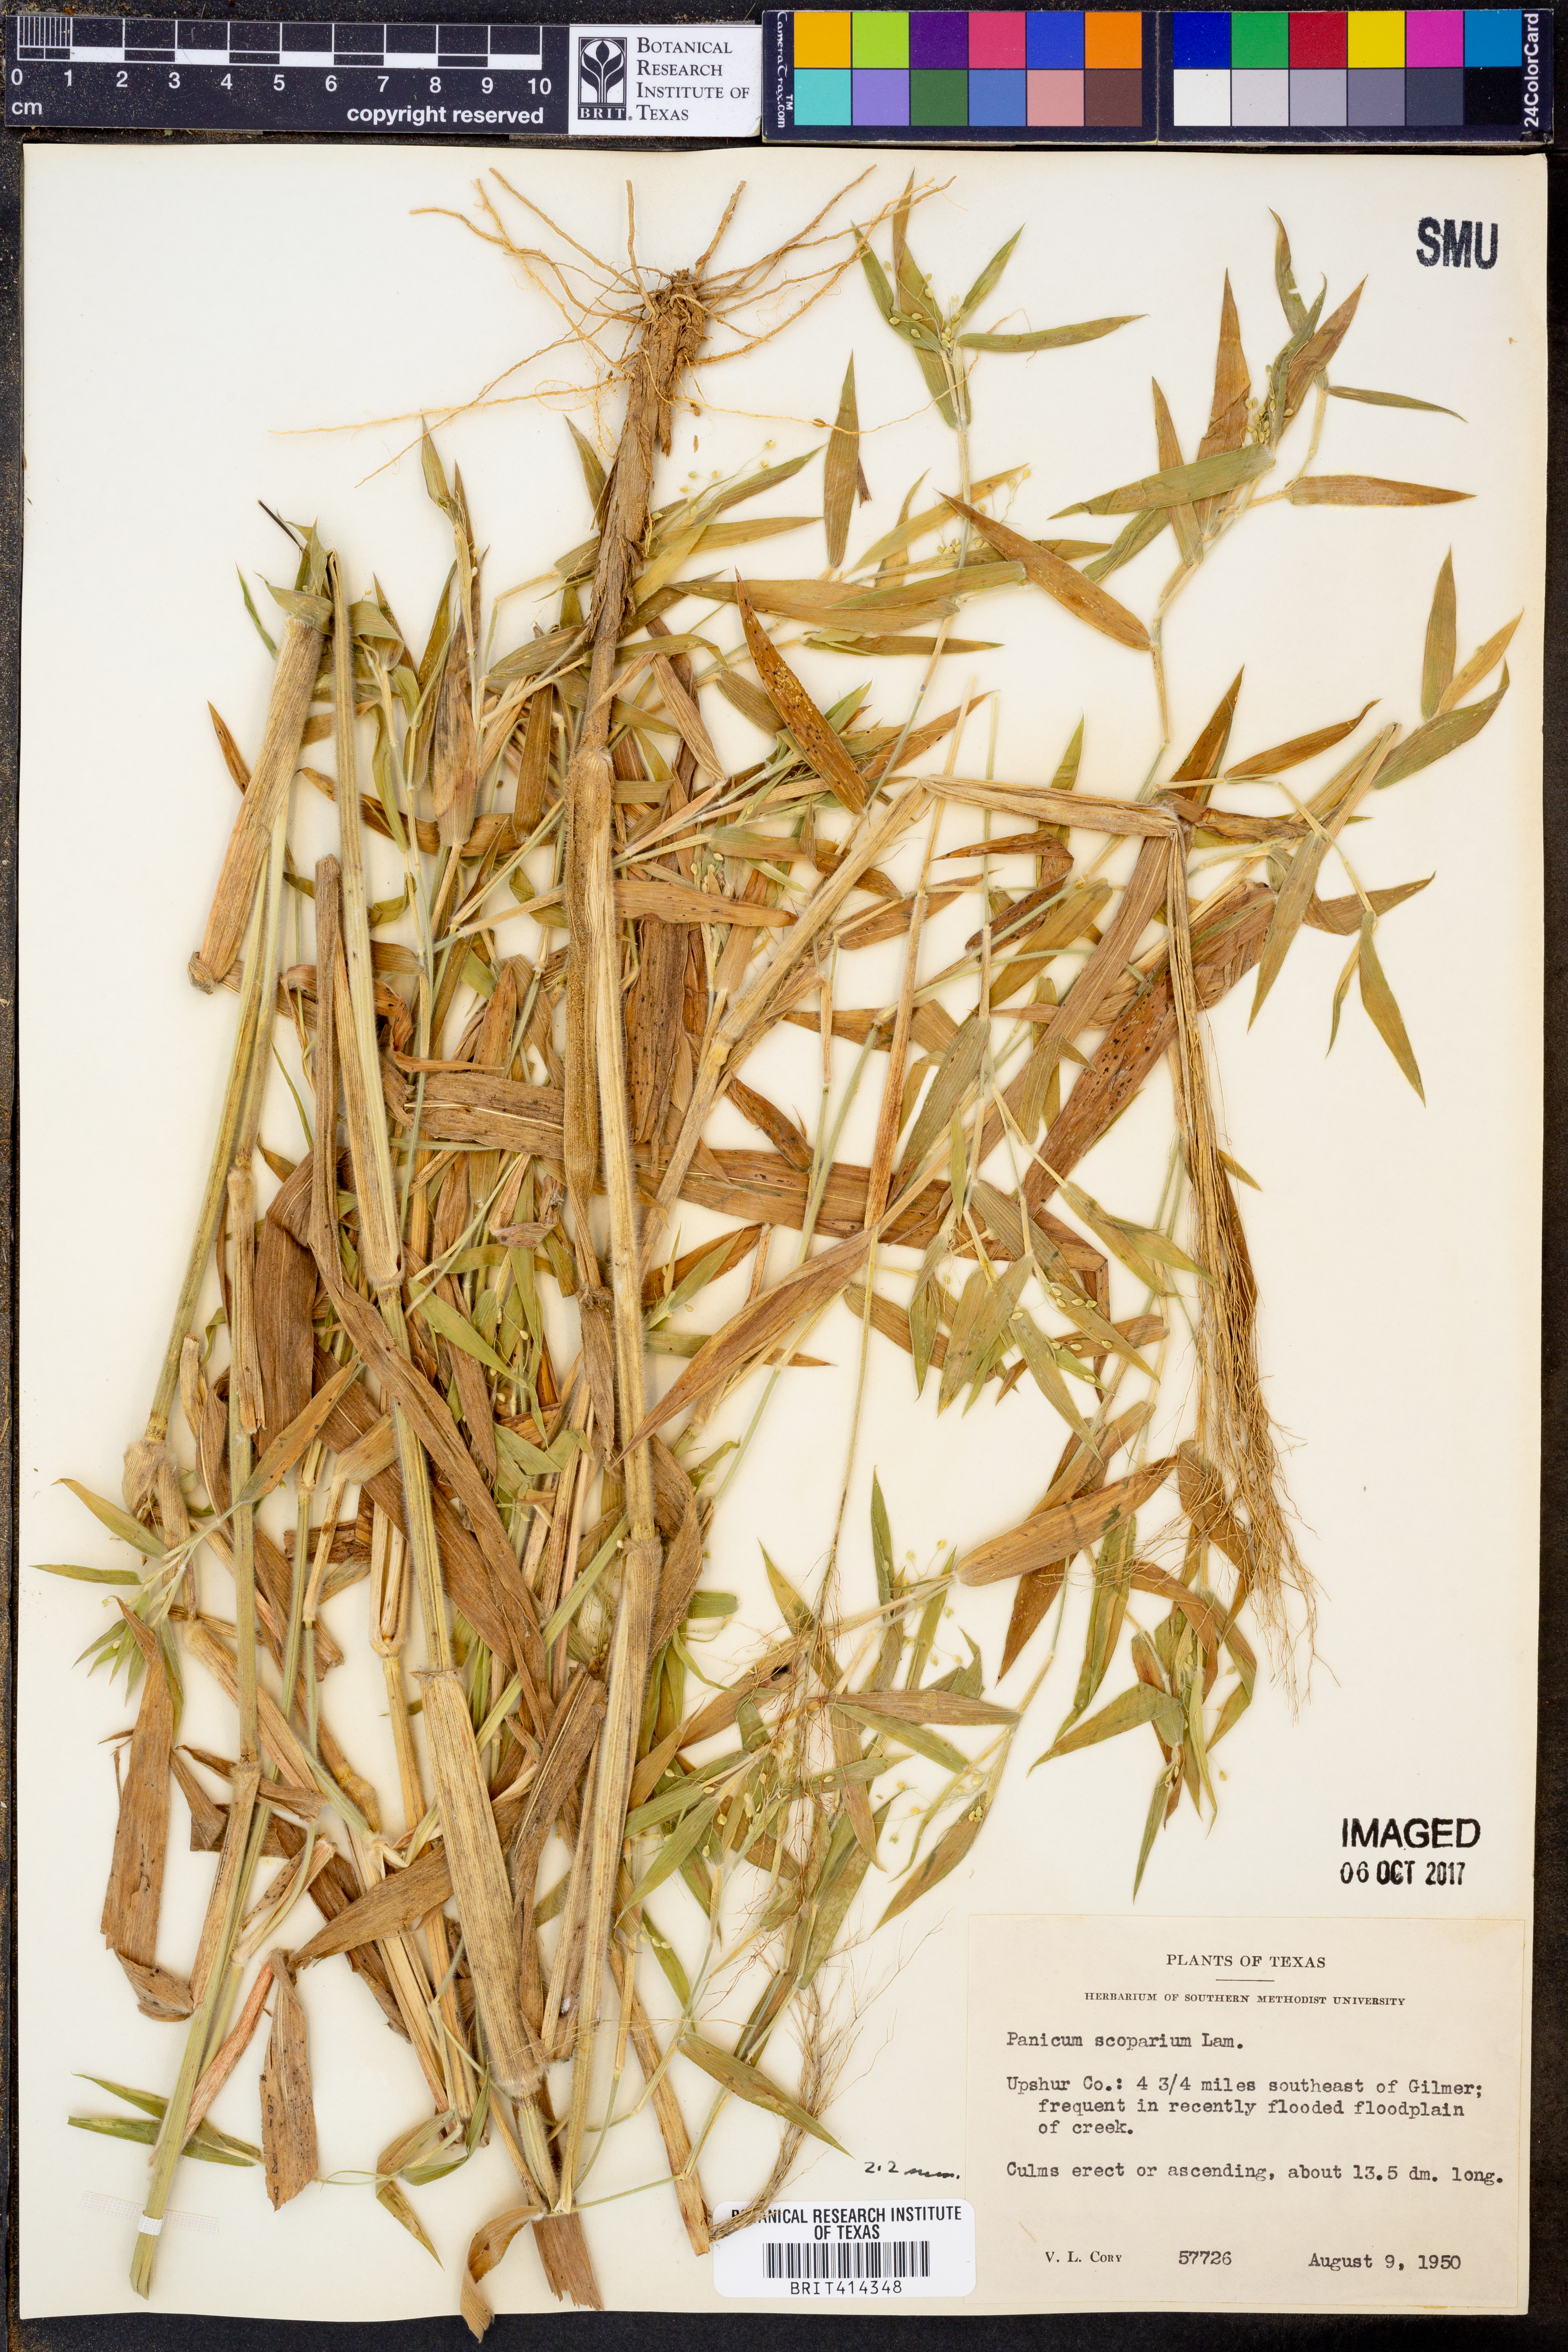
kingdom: Plantae
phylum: Tracheophyta
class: Liliopsida
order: Poales
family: Poaceae
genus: Dichanthelium
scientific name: Dichanthelium scribnerianum
